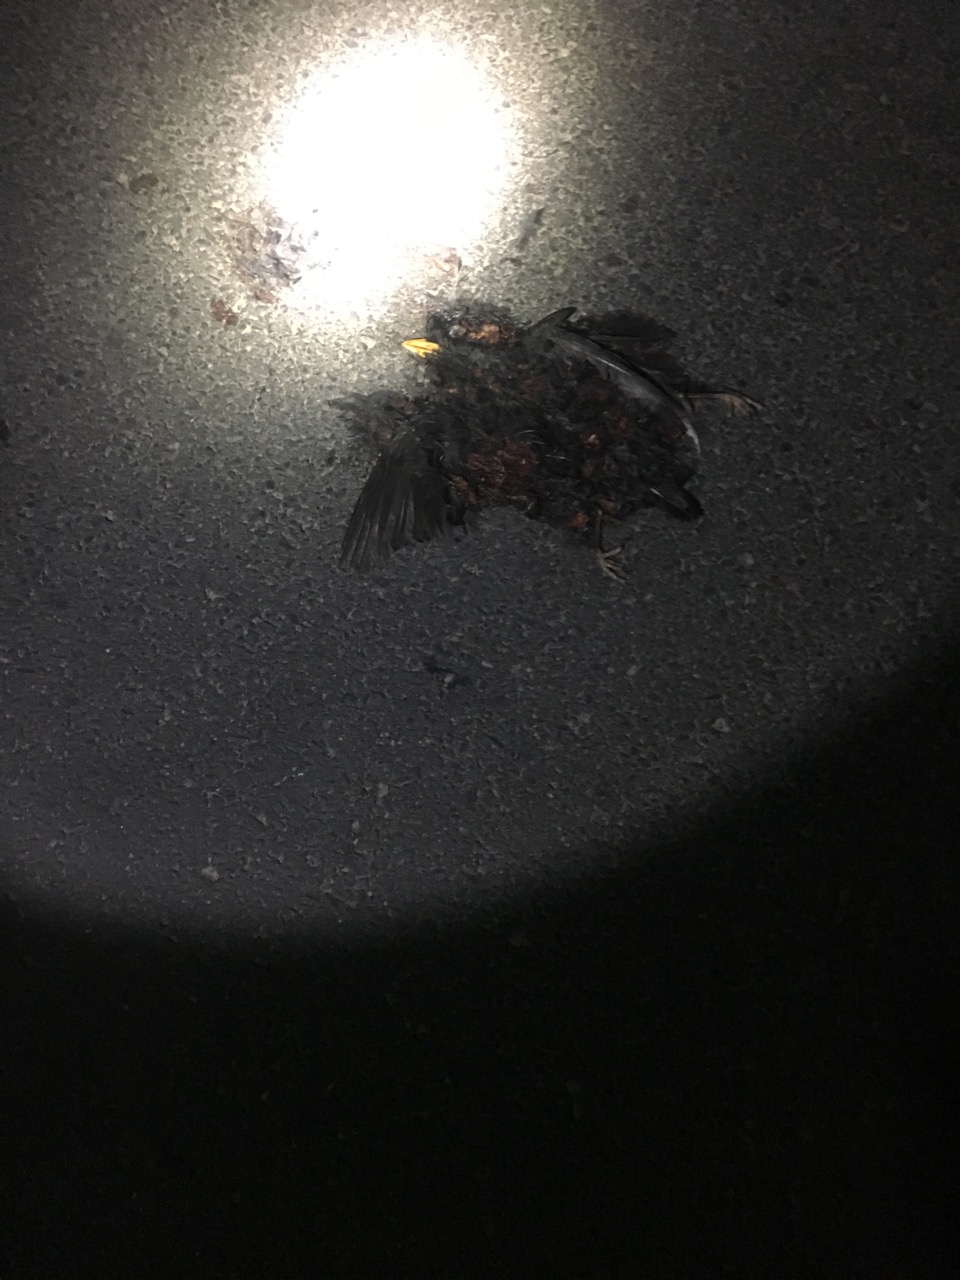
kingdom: Animalia
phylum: Chordata
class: Aves
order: Passeriformes
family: Turdidae
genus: Turdus
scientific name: Turdus merula
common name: Common blackbird
